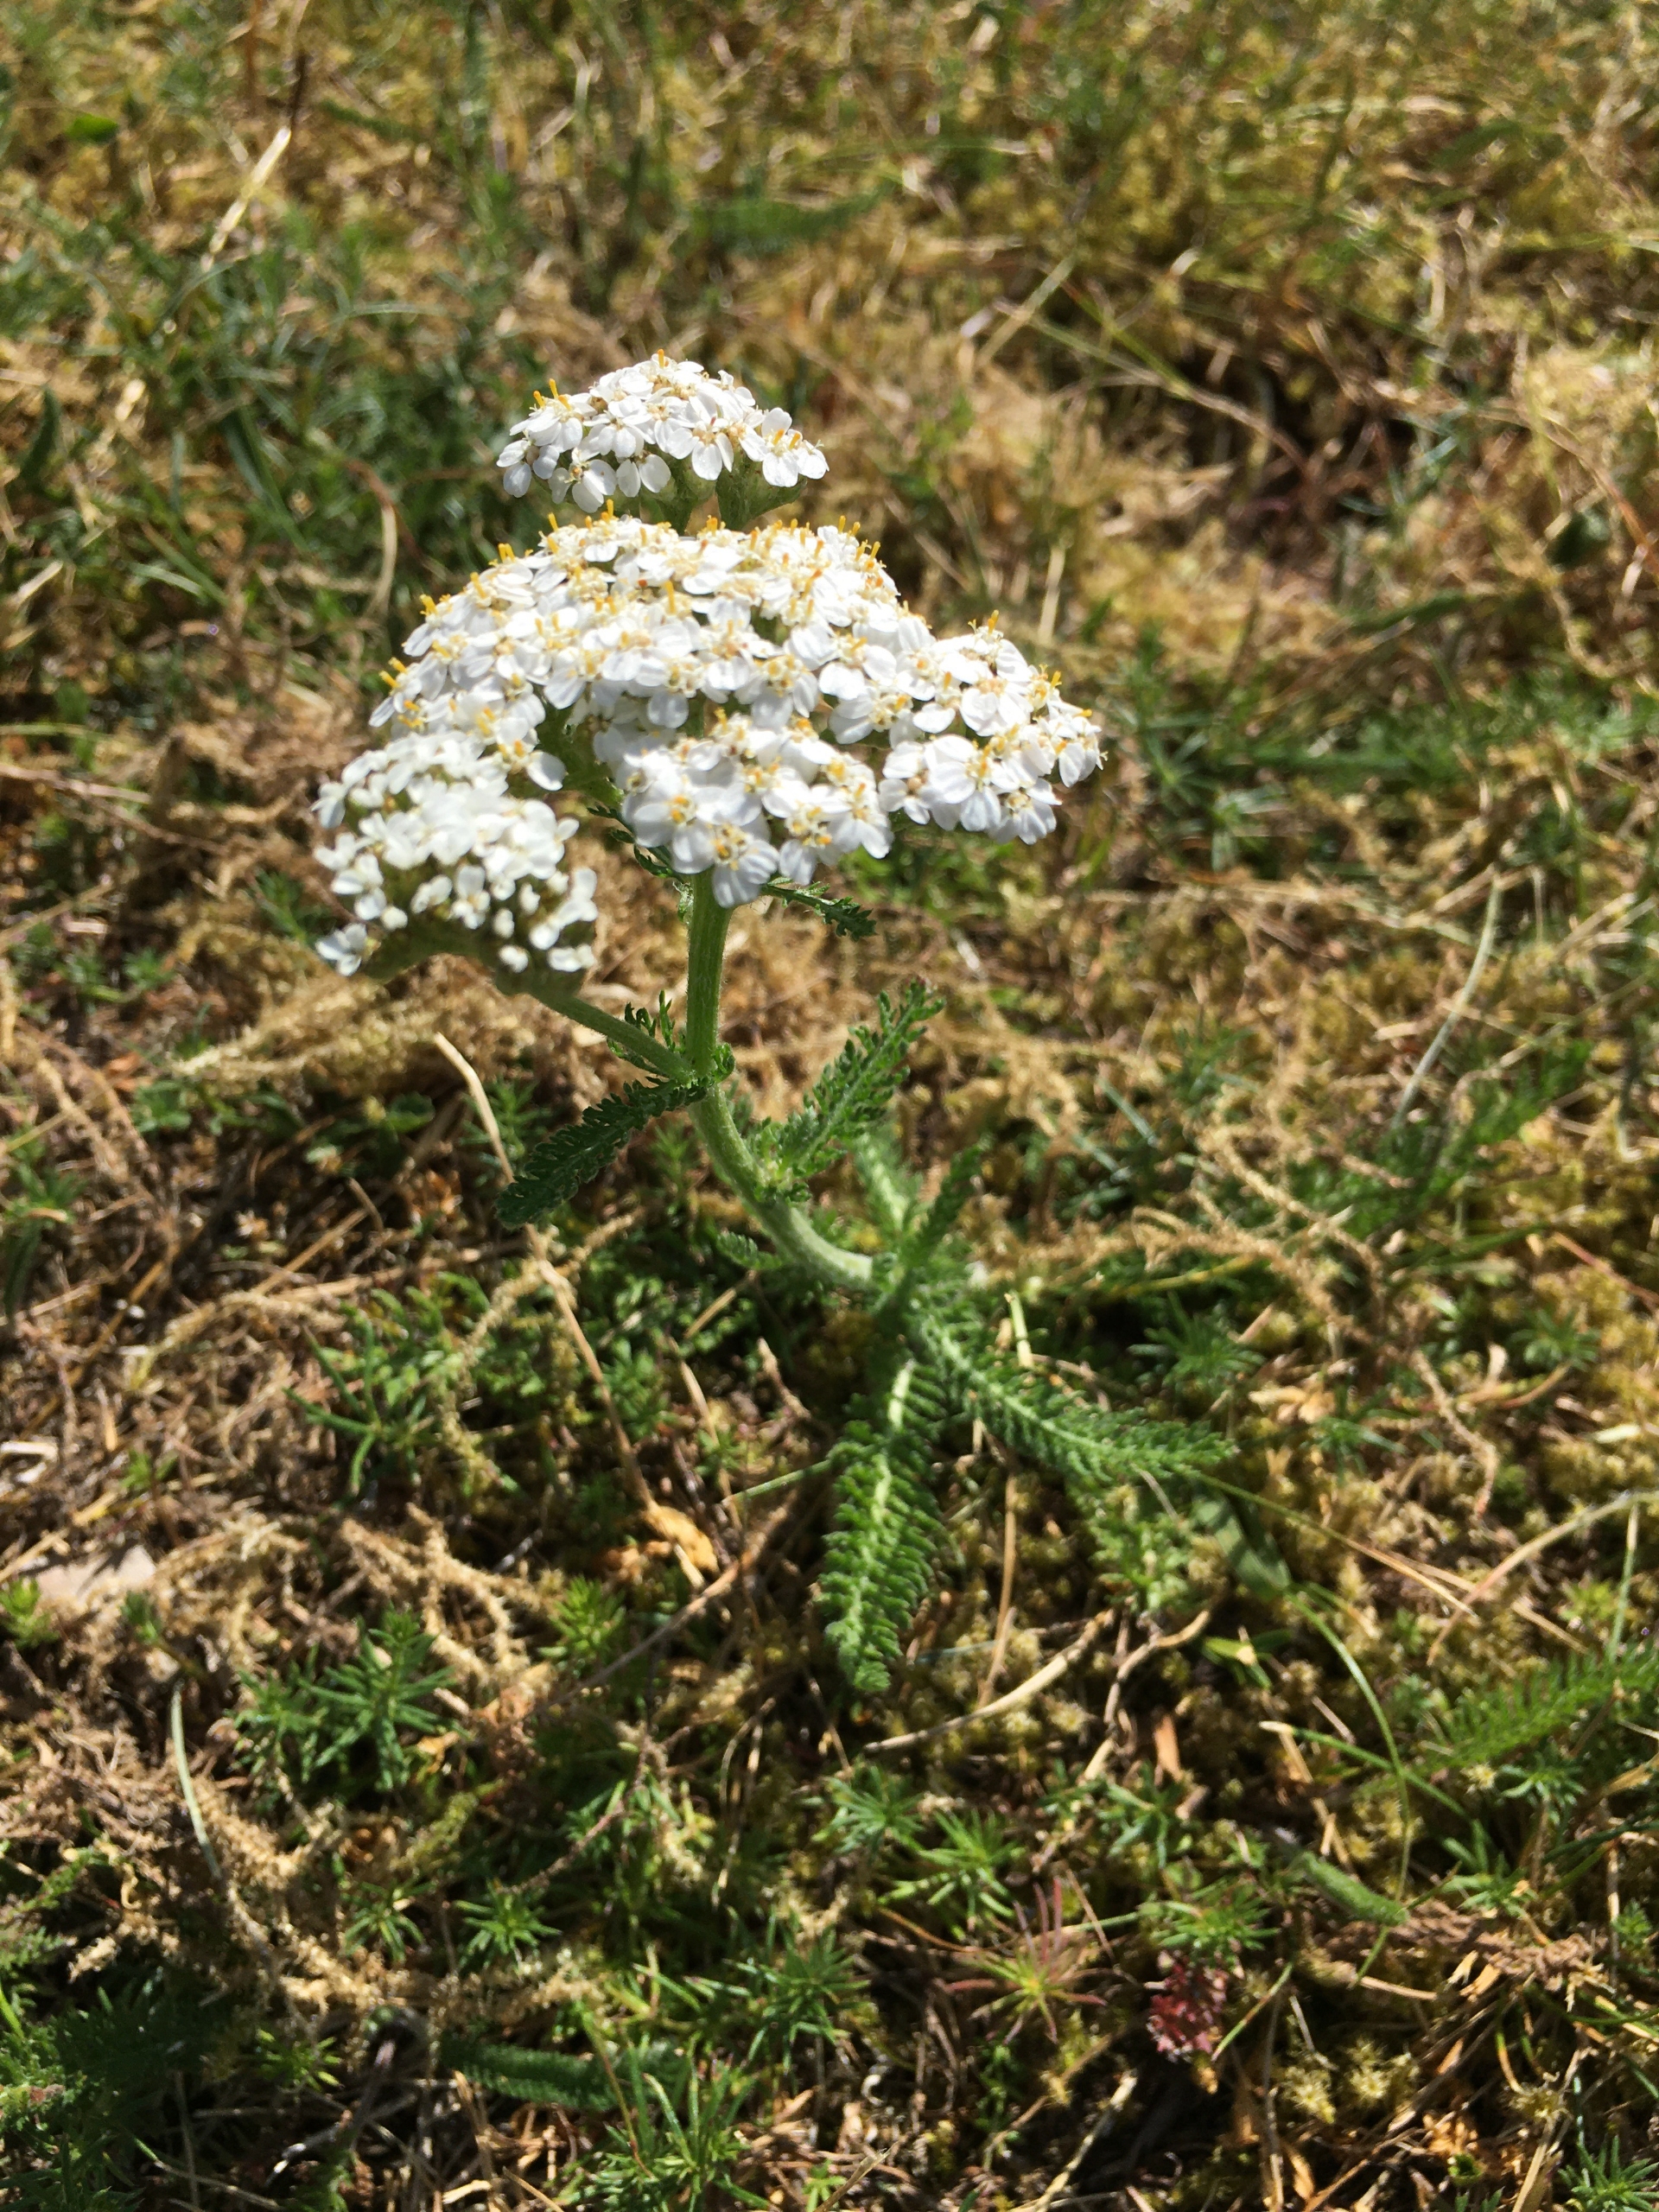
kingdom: Plantae
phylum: Tracheophyta
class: Magnoliopsida
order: Asterales
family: Asteraceae
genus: Achillea
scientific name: Achillea millefolium
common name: Almindelig røllike
